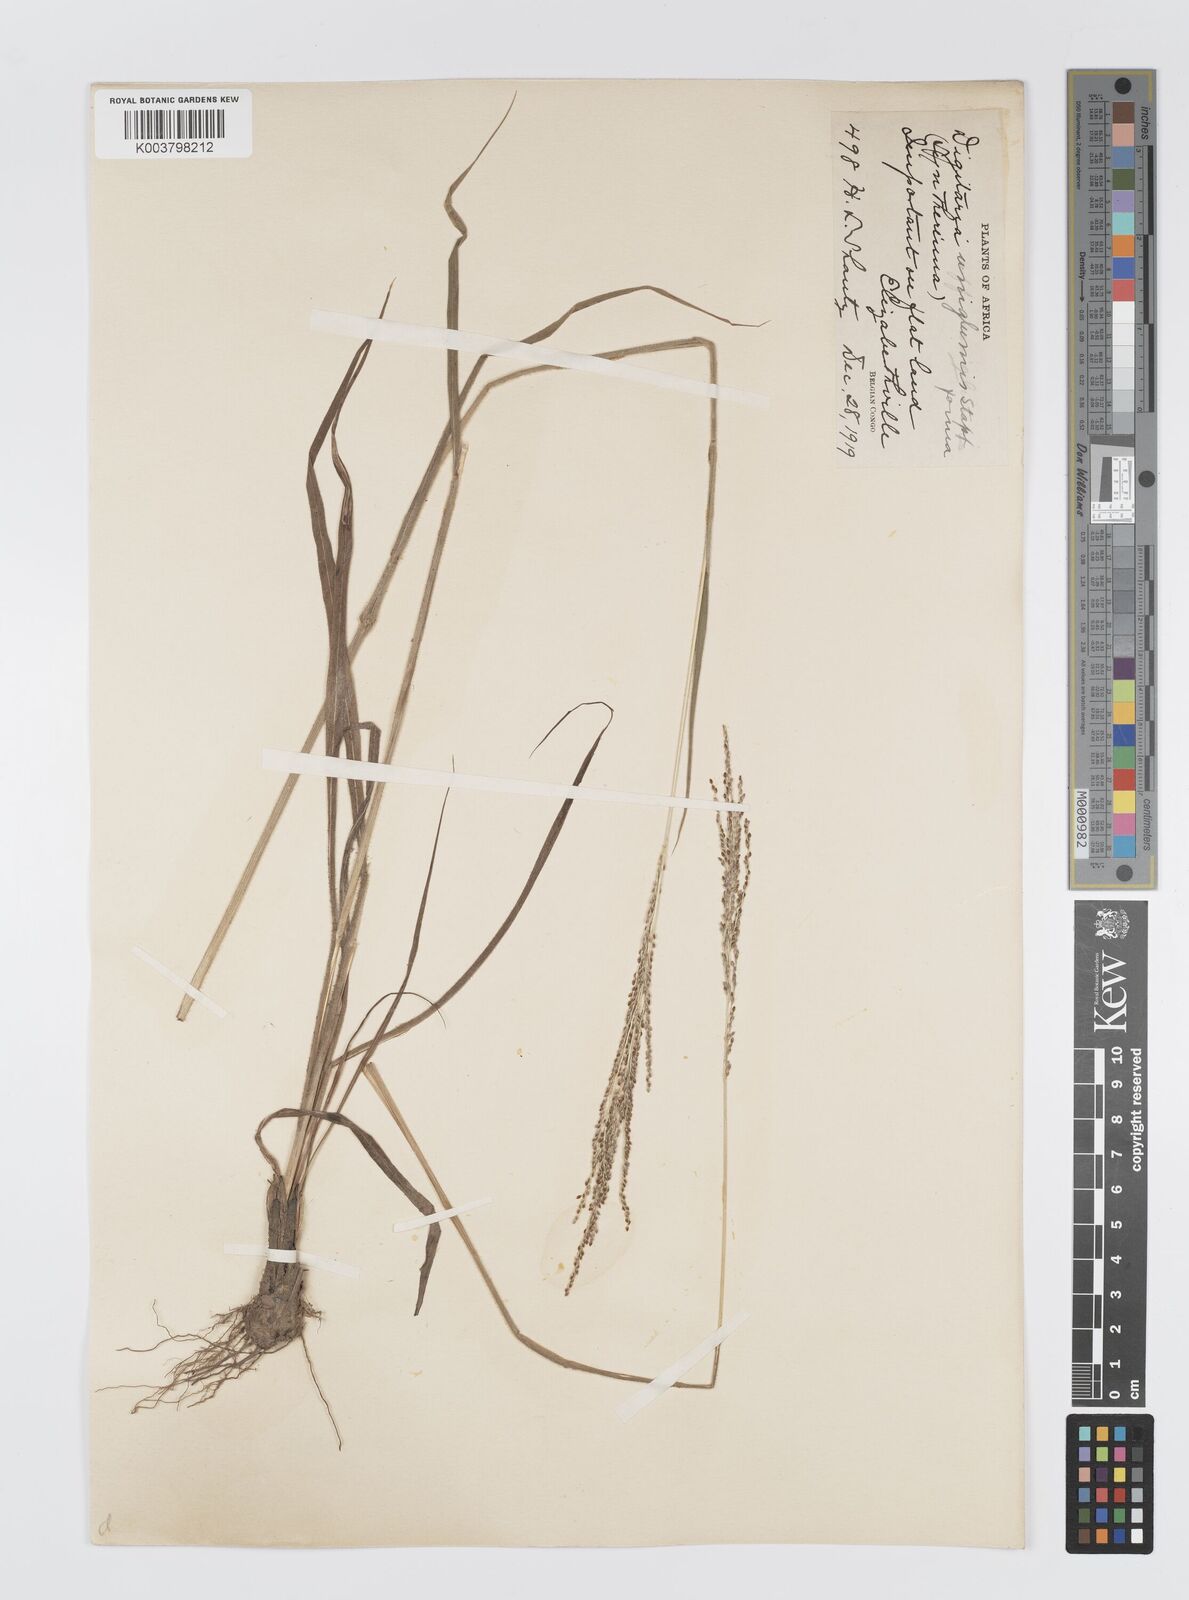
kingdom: Plantae
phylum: Tracheophyta
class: Liliopsida
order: Poales
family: Poaceae
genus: Digitaria
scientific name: Digitaria diagonalis
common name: Brown-seed finger grass
